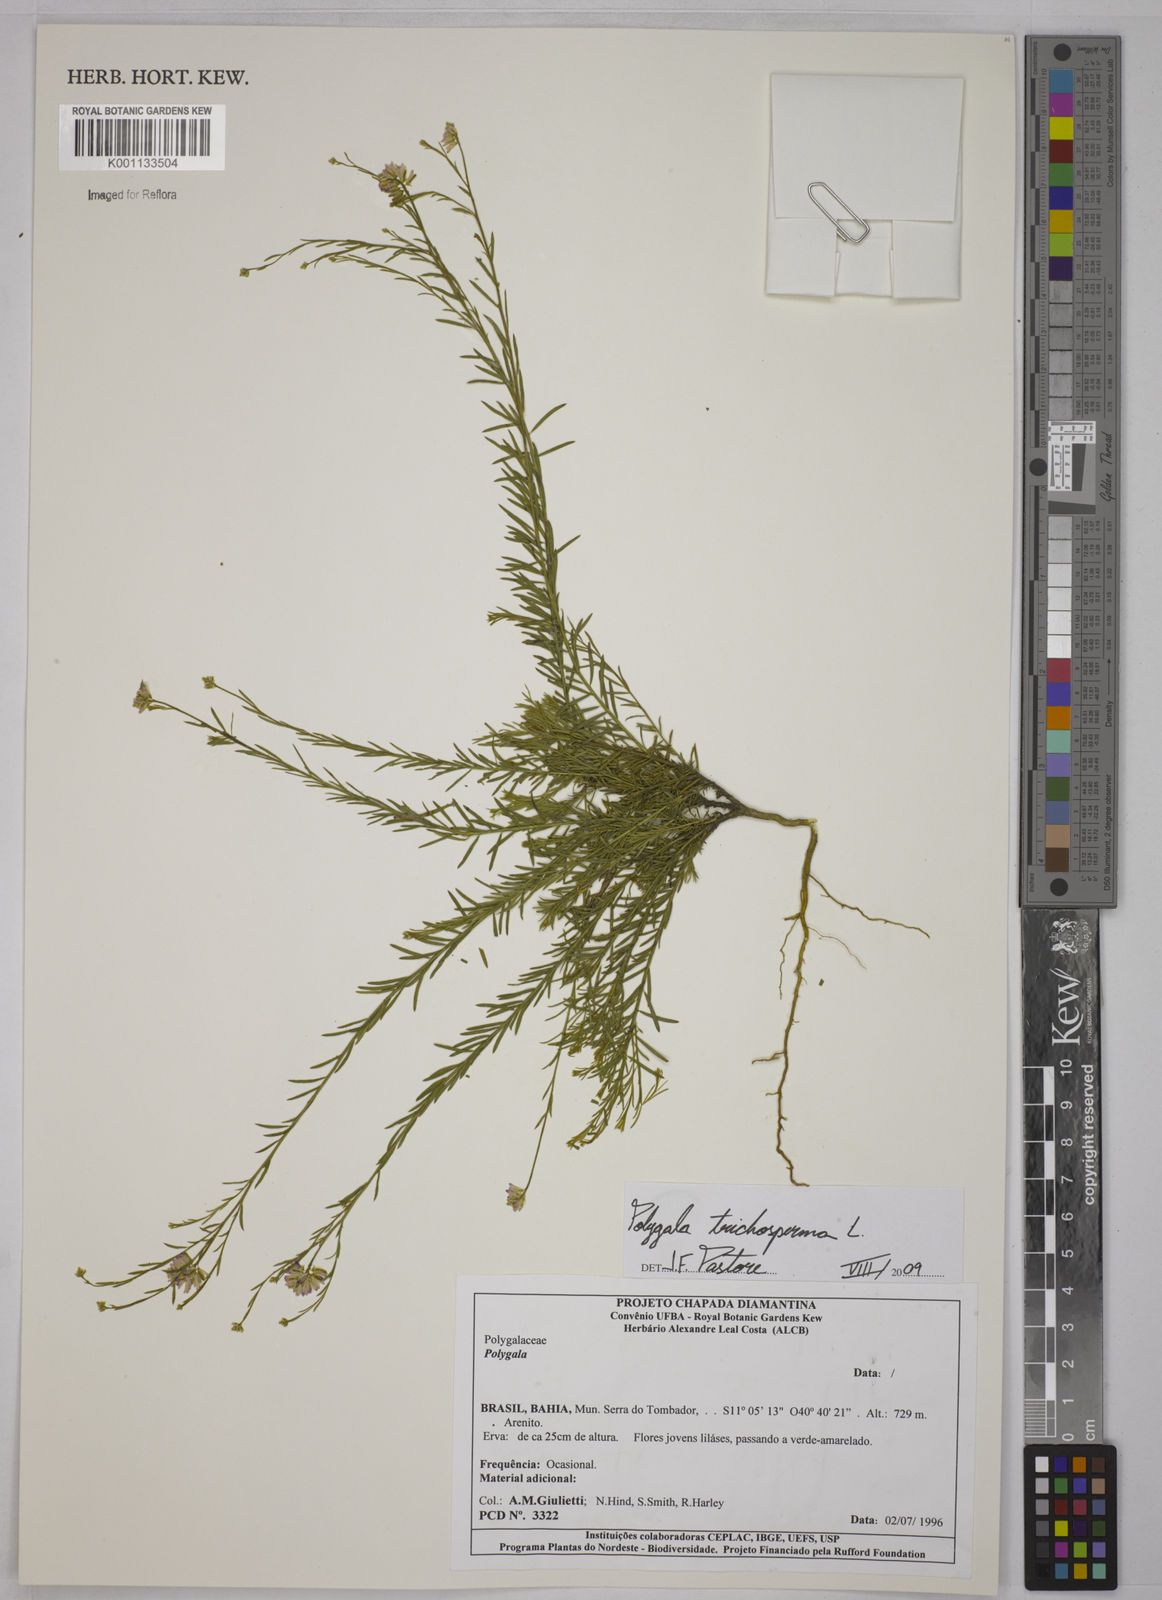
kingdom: Plantae
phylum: Tracheophyta
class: Magnoliopsida
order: Fabales
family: Polygalaceae
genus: Polygala
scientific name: Polygala trichosperma
